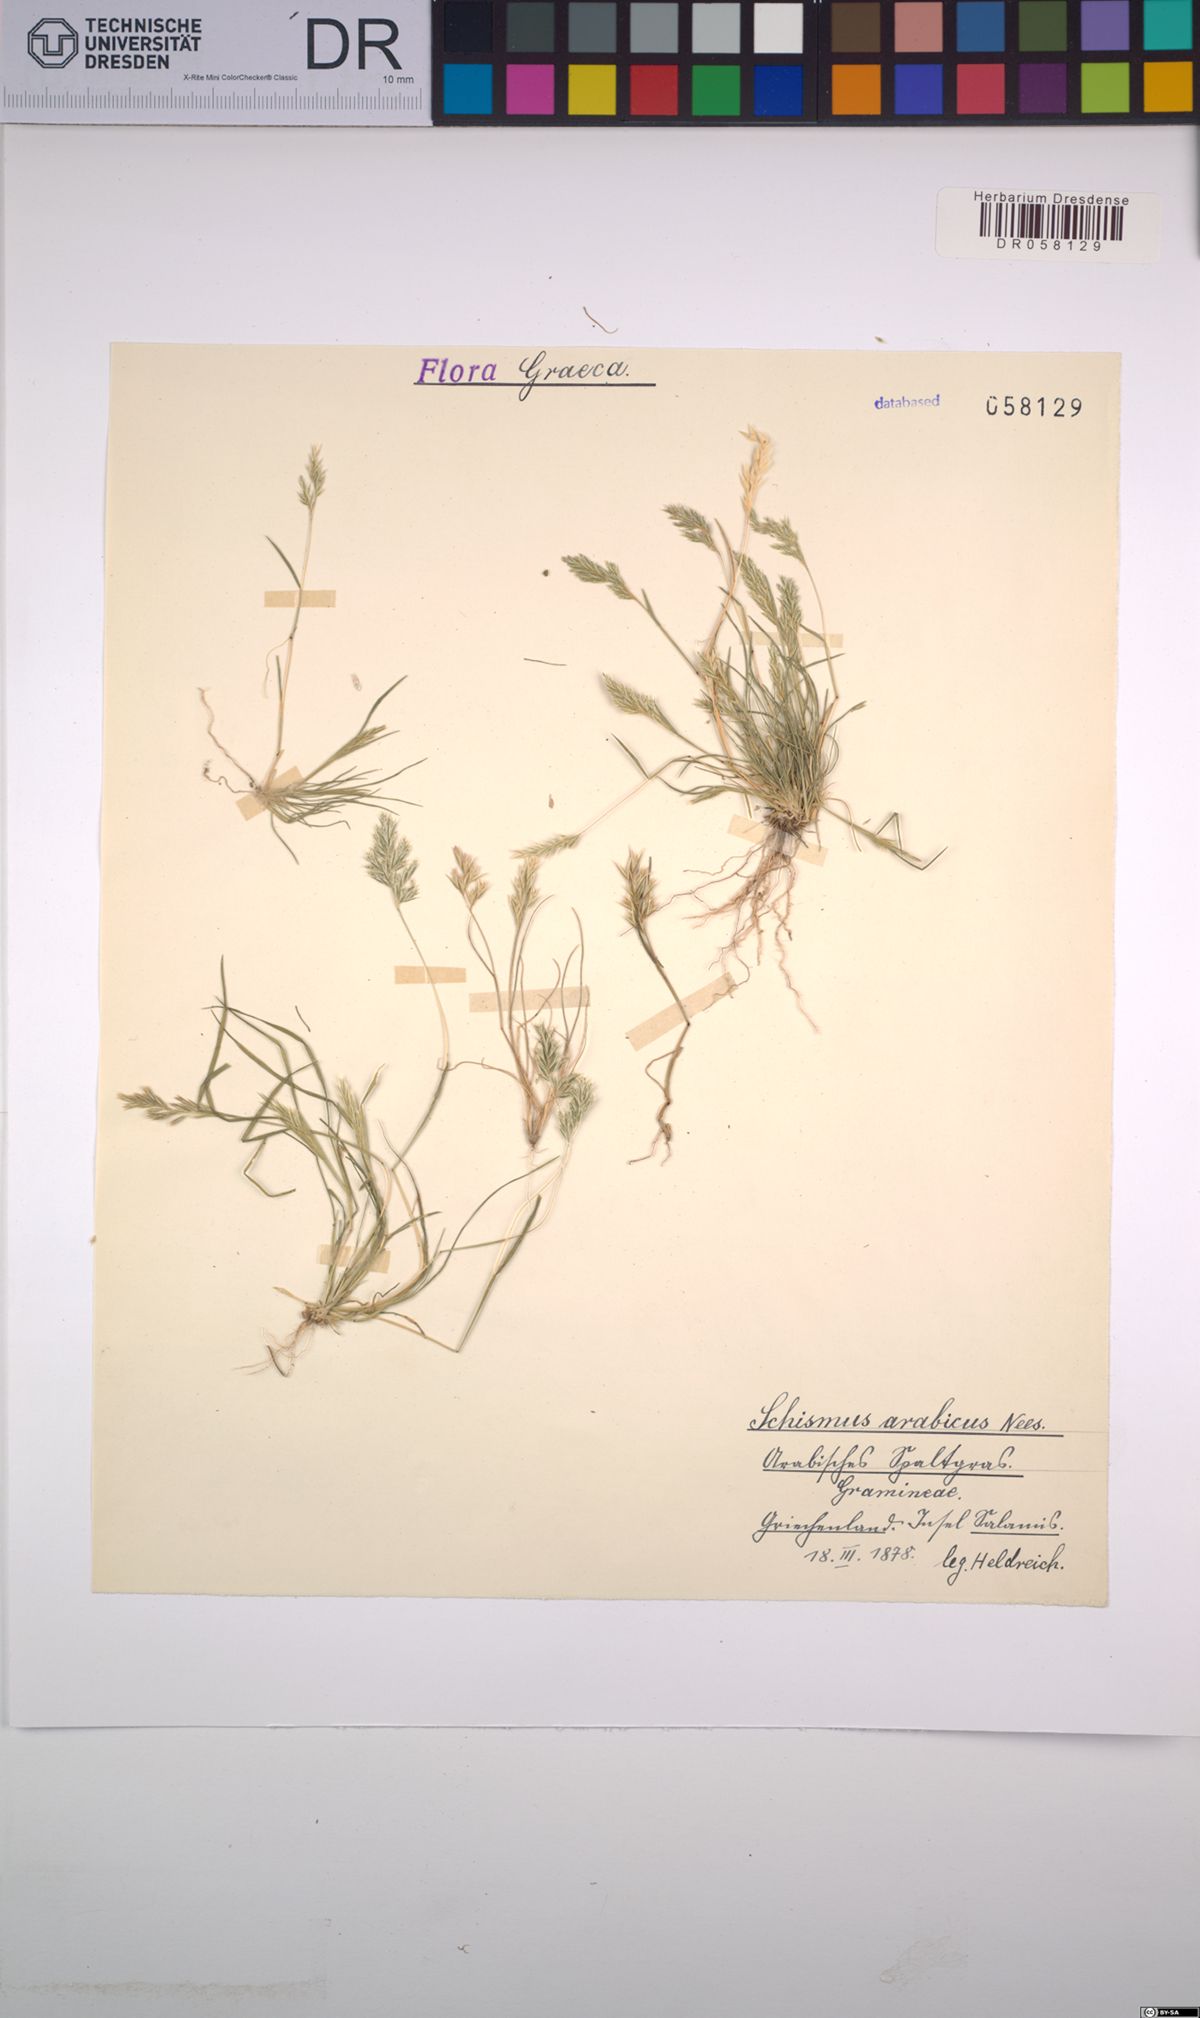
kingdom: Plantae
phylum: Tracheophyta
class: Liliopsida
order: Poales
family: Poaceae
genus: Schismus
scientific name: Schismus arabicus
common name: Arabian schismus
